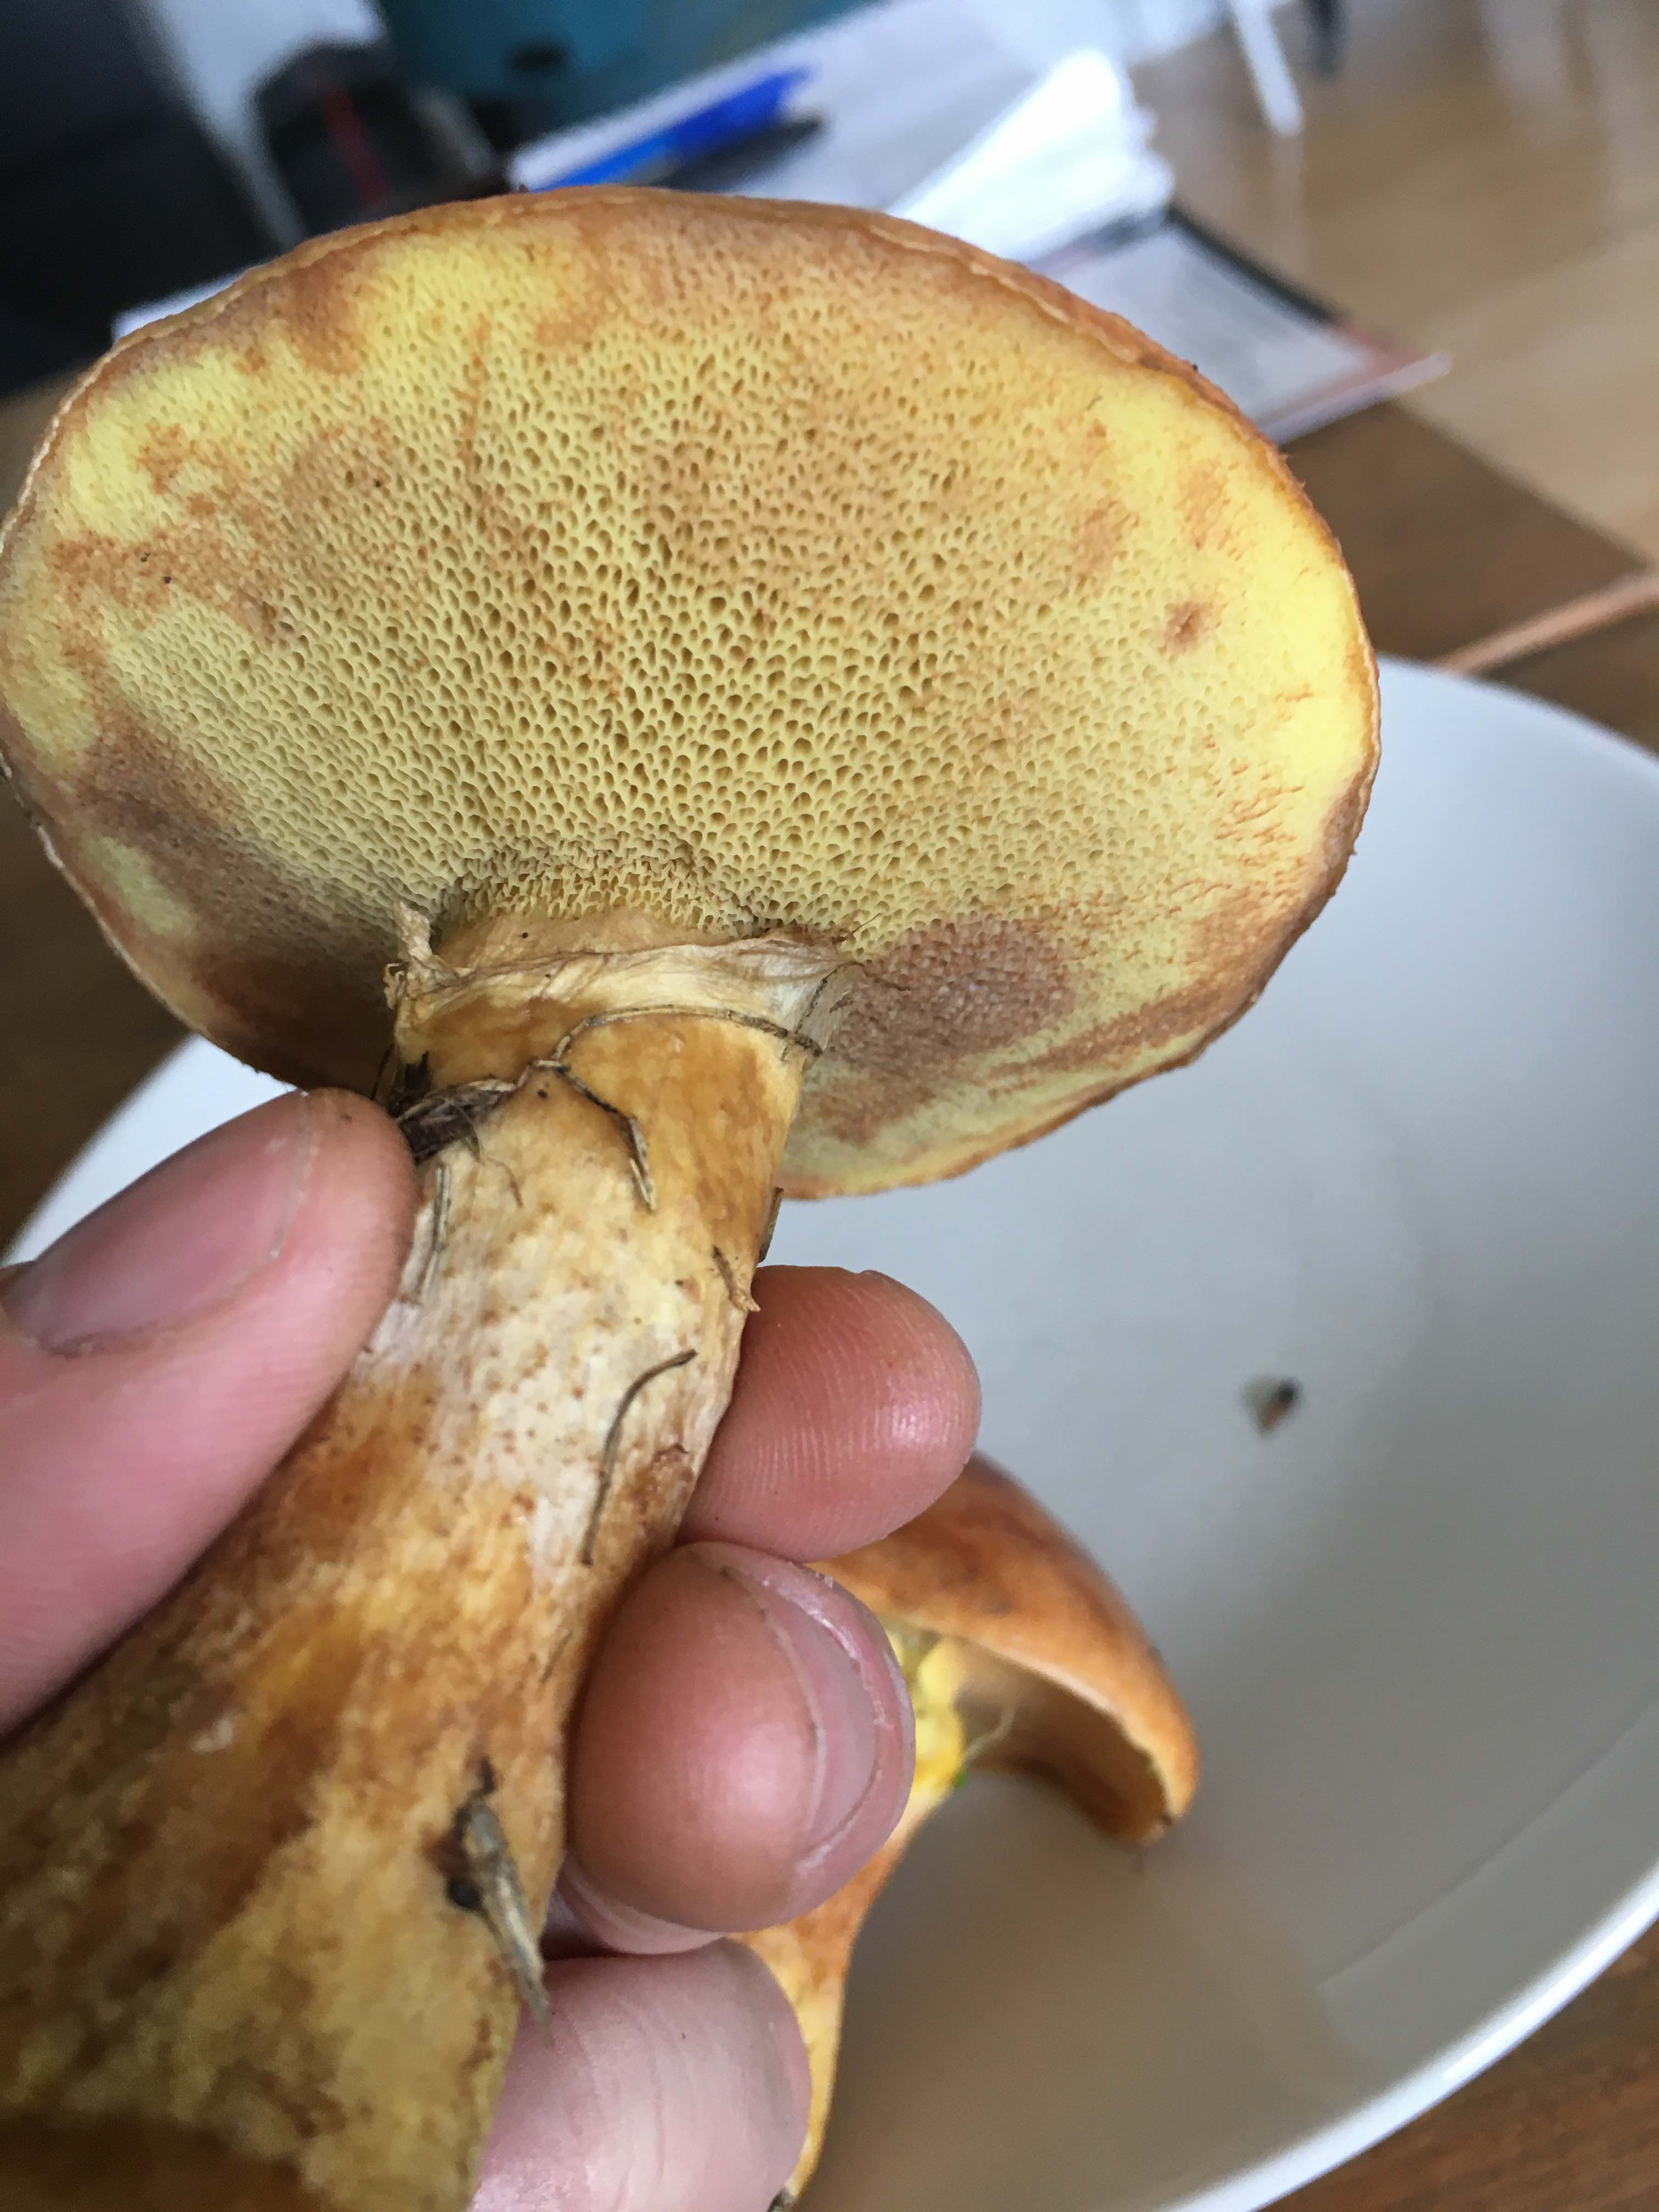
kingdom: Fungi
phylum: Basidiomycota
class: Agaricomycetes
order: Boletales
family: Suillaceae
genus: Suillus
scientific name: Suillus grevillei
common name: lærke-slimrørhat
